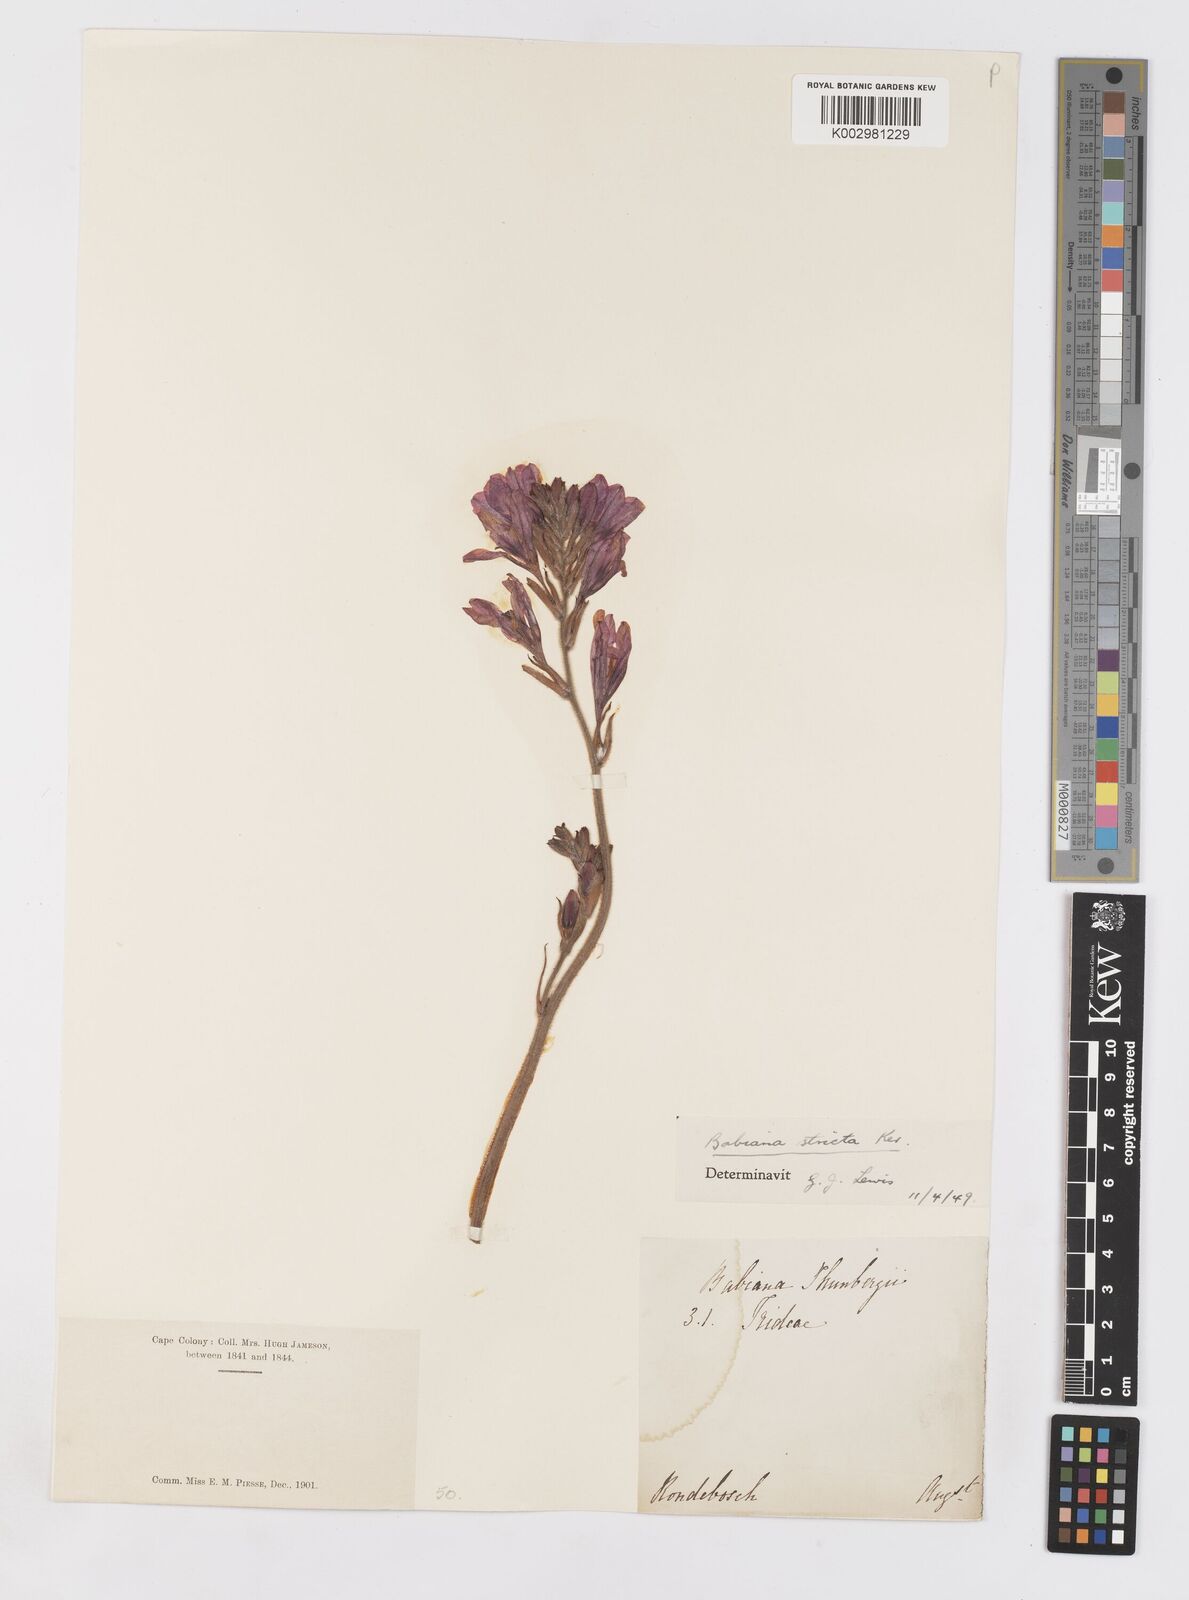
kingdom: Plantae
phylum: Tracheophyta
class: Liliopsida
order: Asparagales
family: Iridaceae
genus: Babiana
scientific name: Babiana regia
